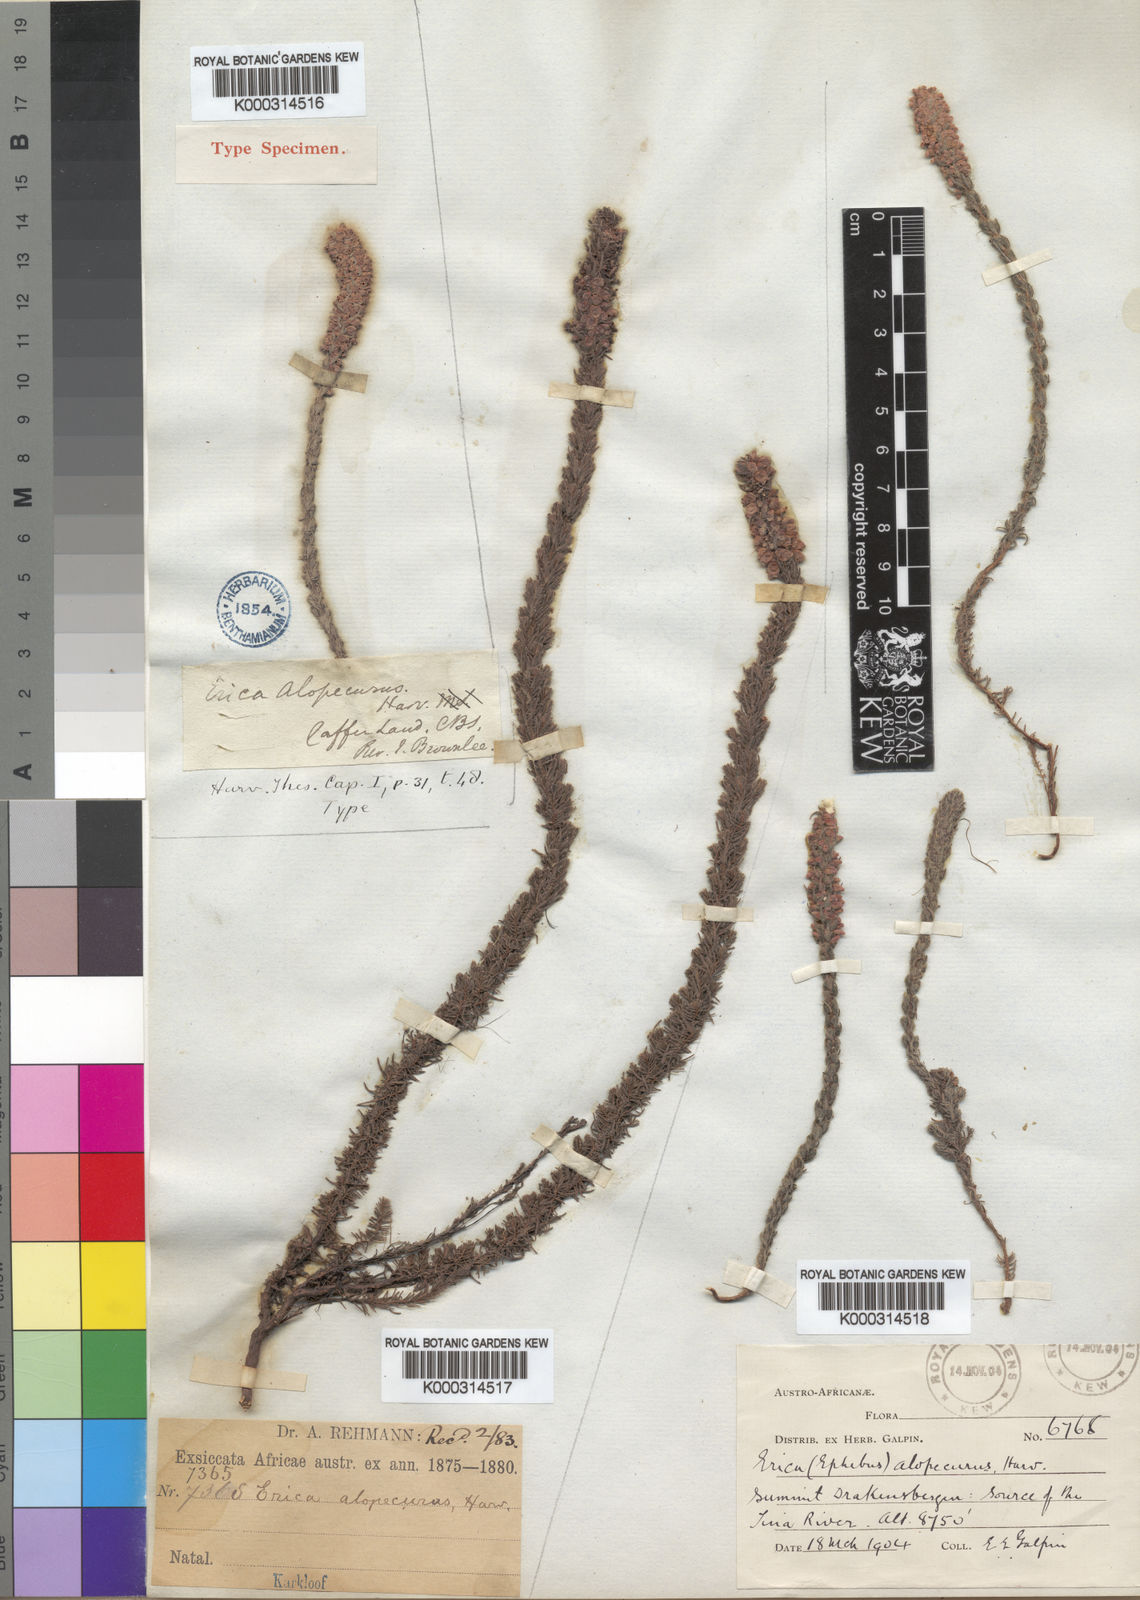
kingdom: Plantae
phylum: Tracheophyta
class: Magnoliopsida
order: Ericales
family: Ericaceae
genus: Erica
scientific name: Erica alopecurus
